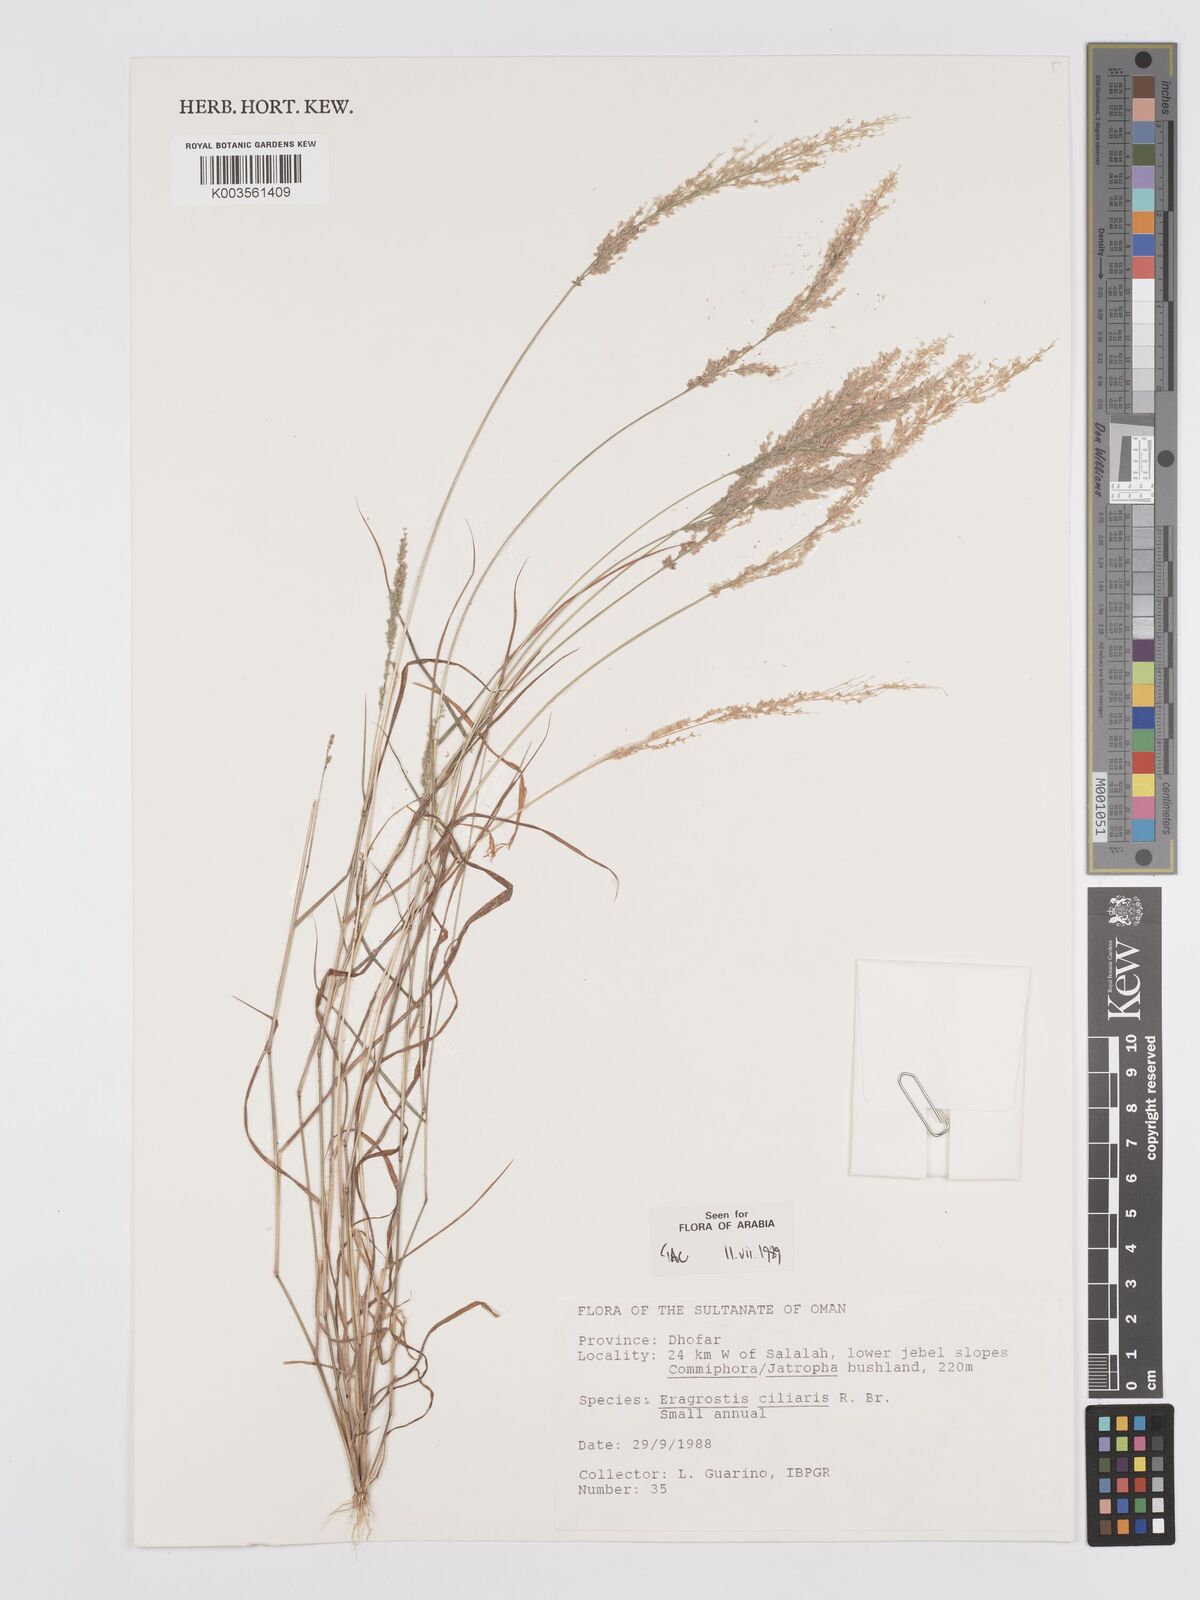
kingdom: Plantae
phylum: Tracheophyta
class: Liliopsida
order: Poales
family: Poaceae
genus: Eragrostis
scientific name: Eragrostis ciliaris
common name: Gophertail lovegrass
